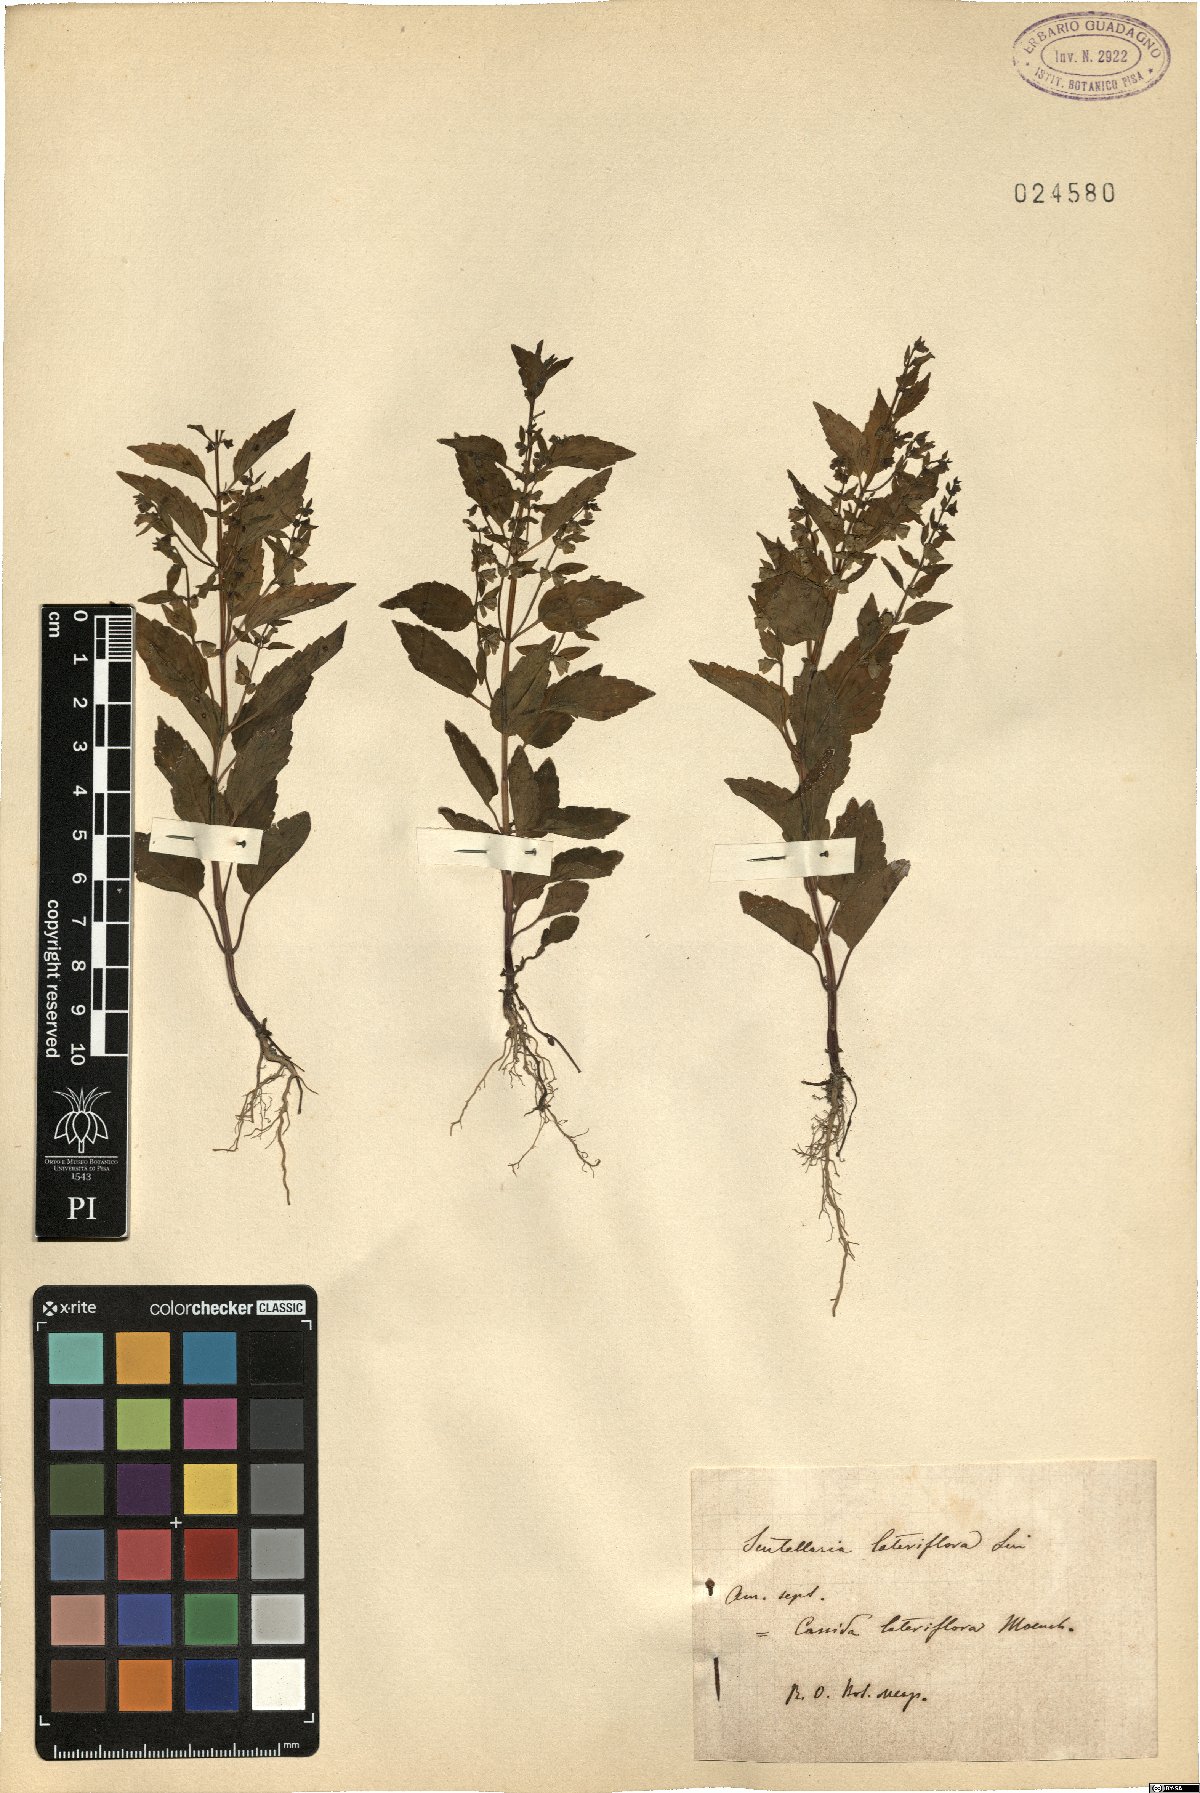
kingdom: Plantae
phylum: Tracheophyta
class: Magnoliopsida
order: Lamiales
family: Lamiaceae
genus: Scutellaria
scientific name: Scutellaria lateriflora
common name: Blue skullcap
